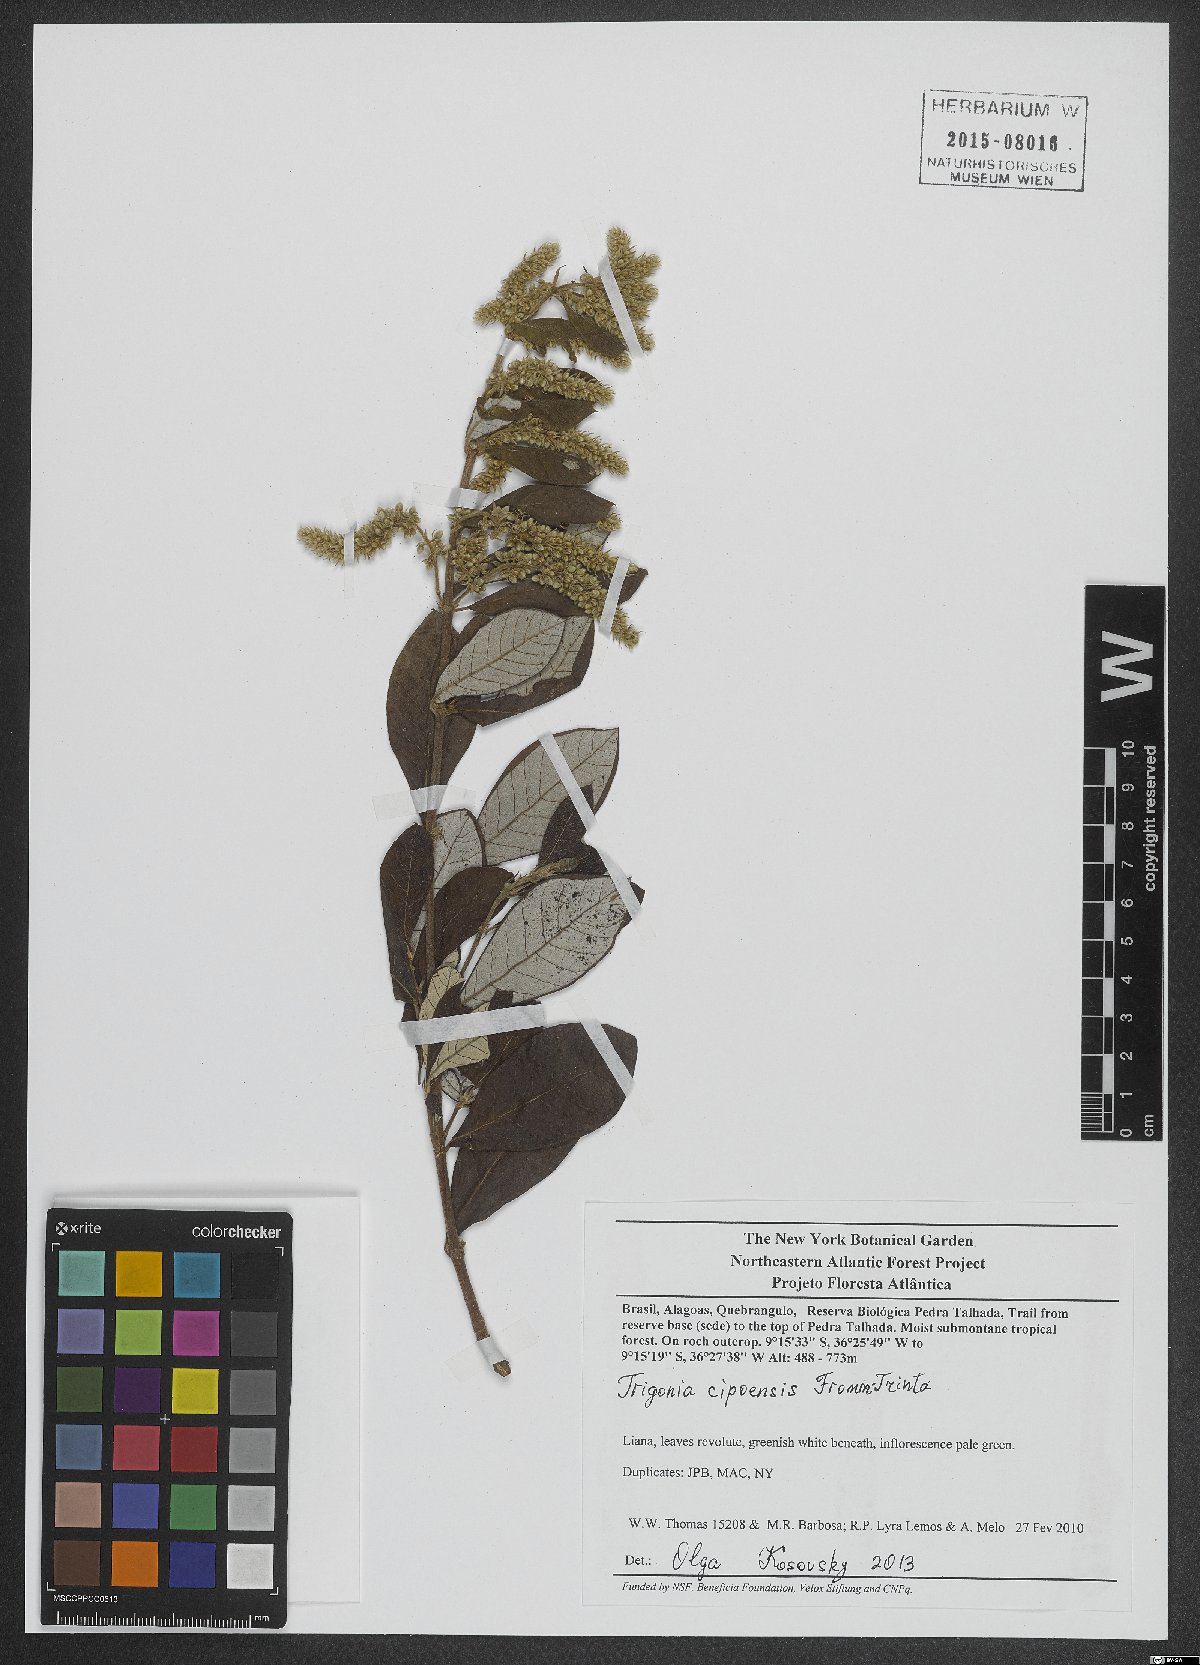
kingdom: Plantae
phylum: Tracheophyta
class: Magnoliopsida
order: Malpighiales
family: Trigoniaceae
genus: Trigonia
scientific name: Trigonia cipoensis
